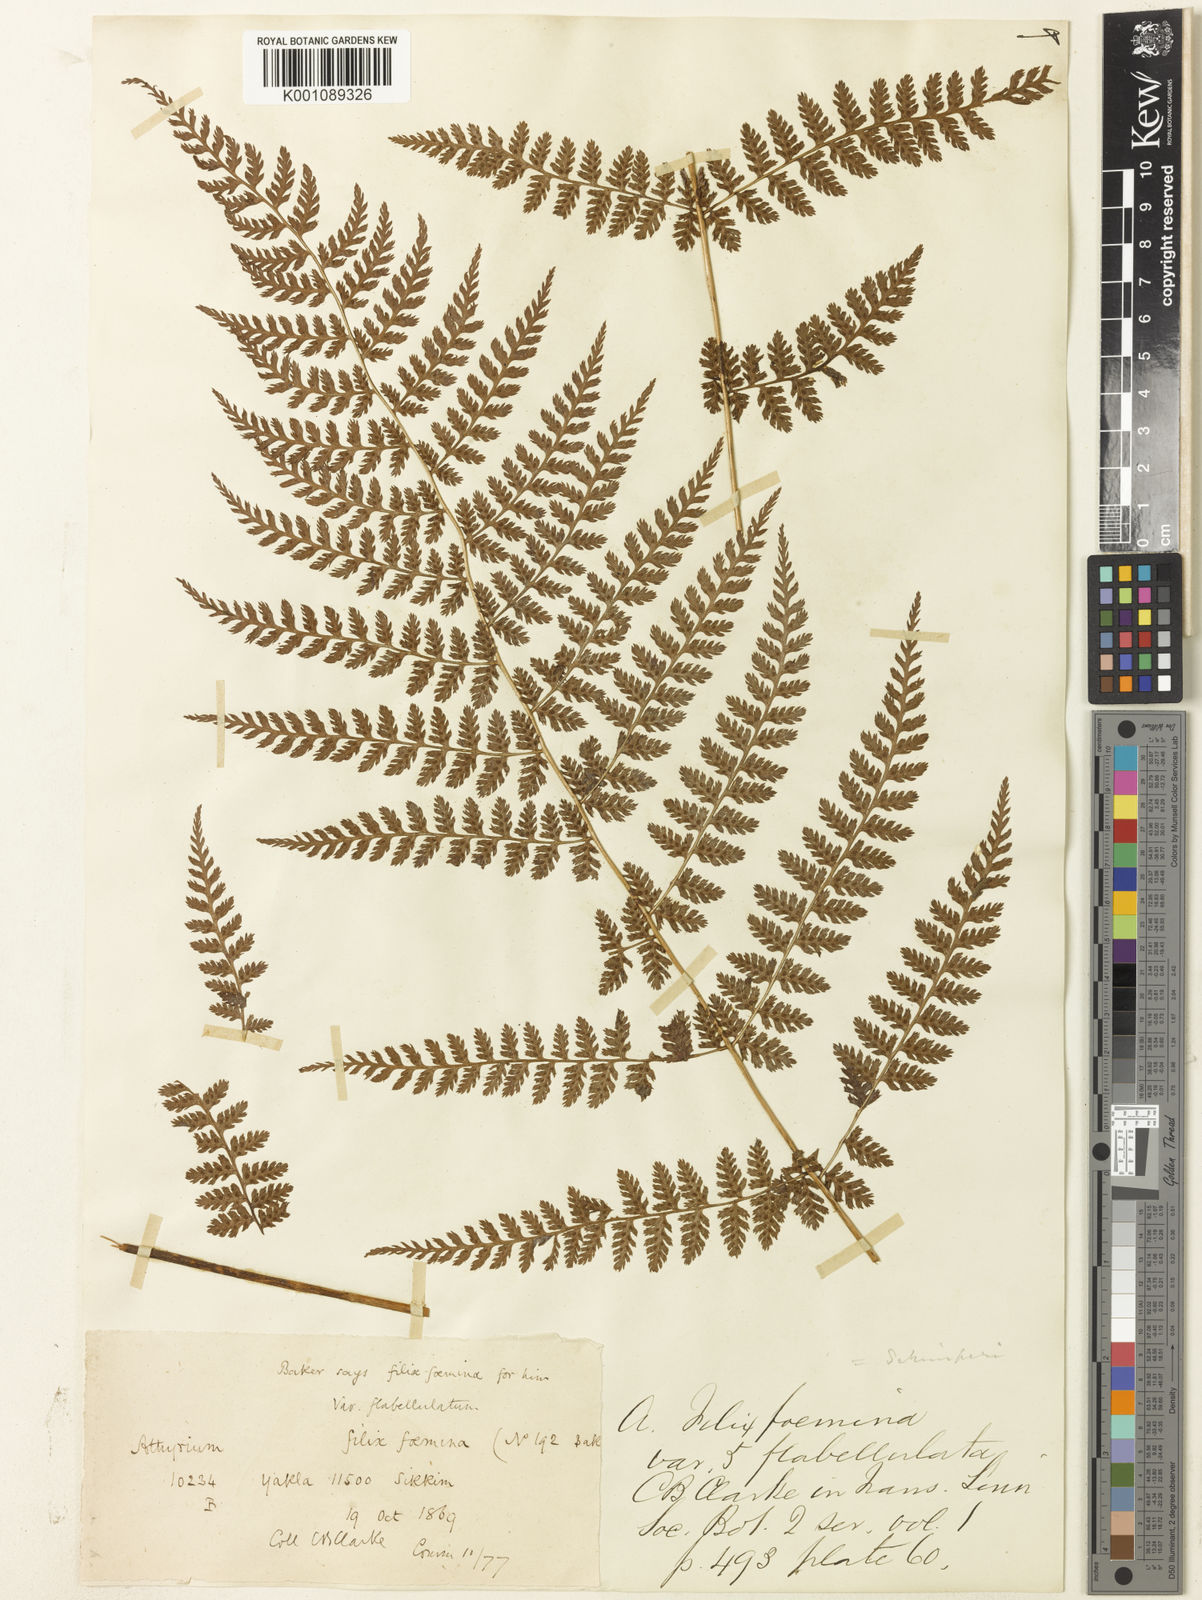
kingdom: Plantae
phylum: Tracheophyta
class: Polypodiopsida
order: Polypodiales
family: Athyriaceae
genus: Athyrium
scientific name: Athyrium nigripes
